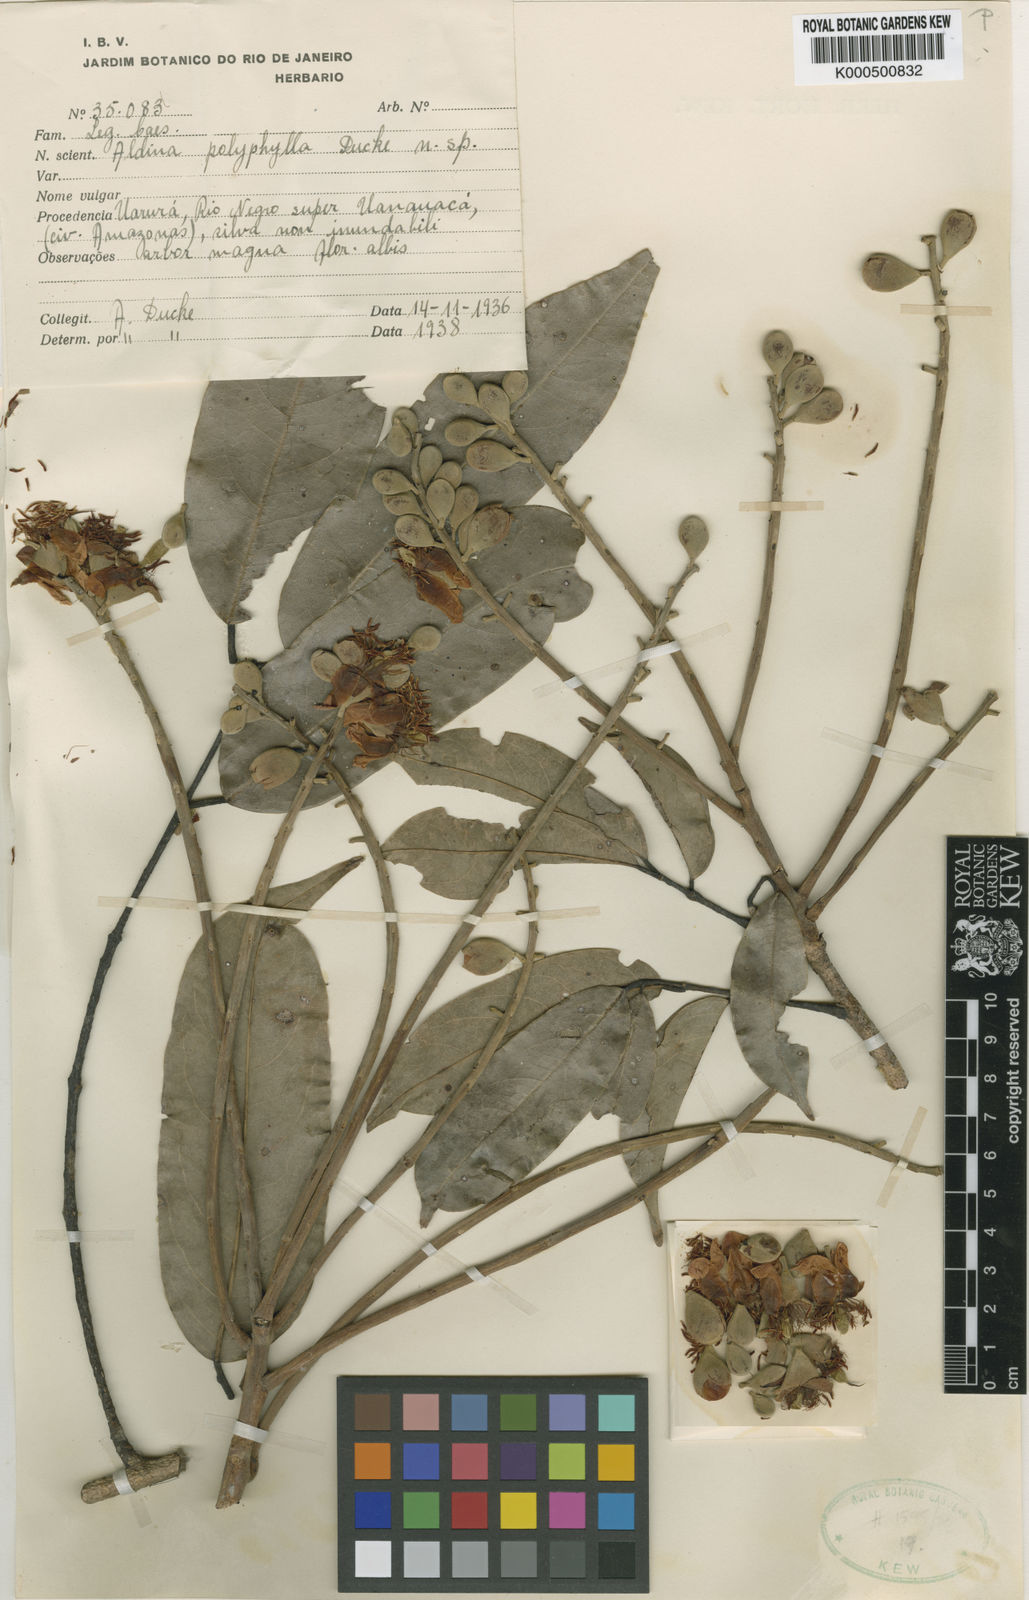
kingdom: Plantae
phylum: Tracheophyta
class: Magnoliopsida
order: Fabales
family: Fabaceae
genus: Aldina
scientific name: Aldina polyphylla
